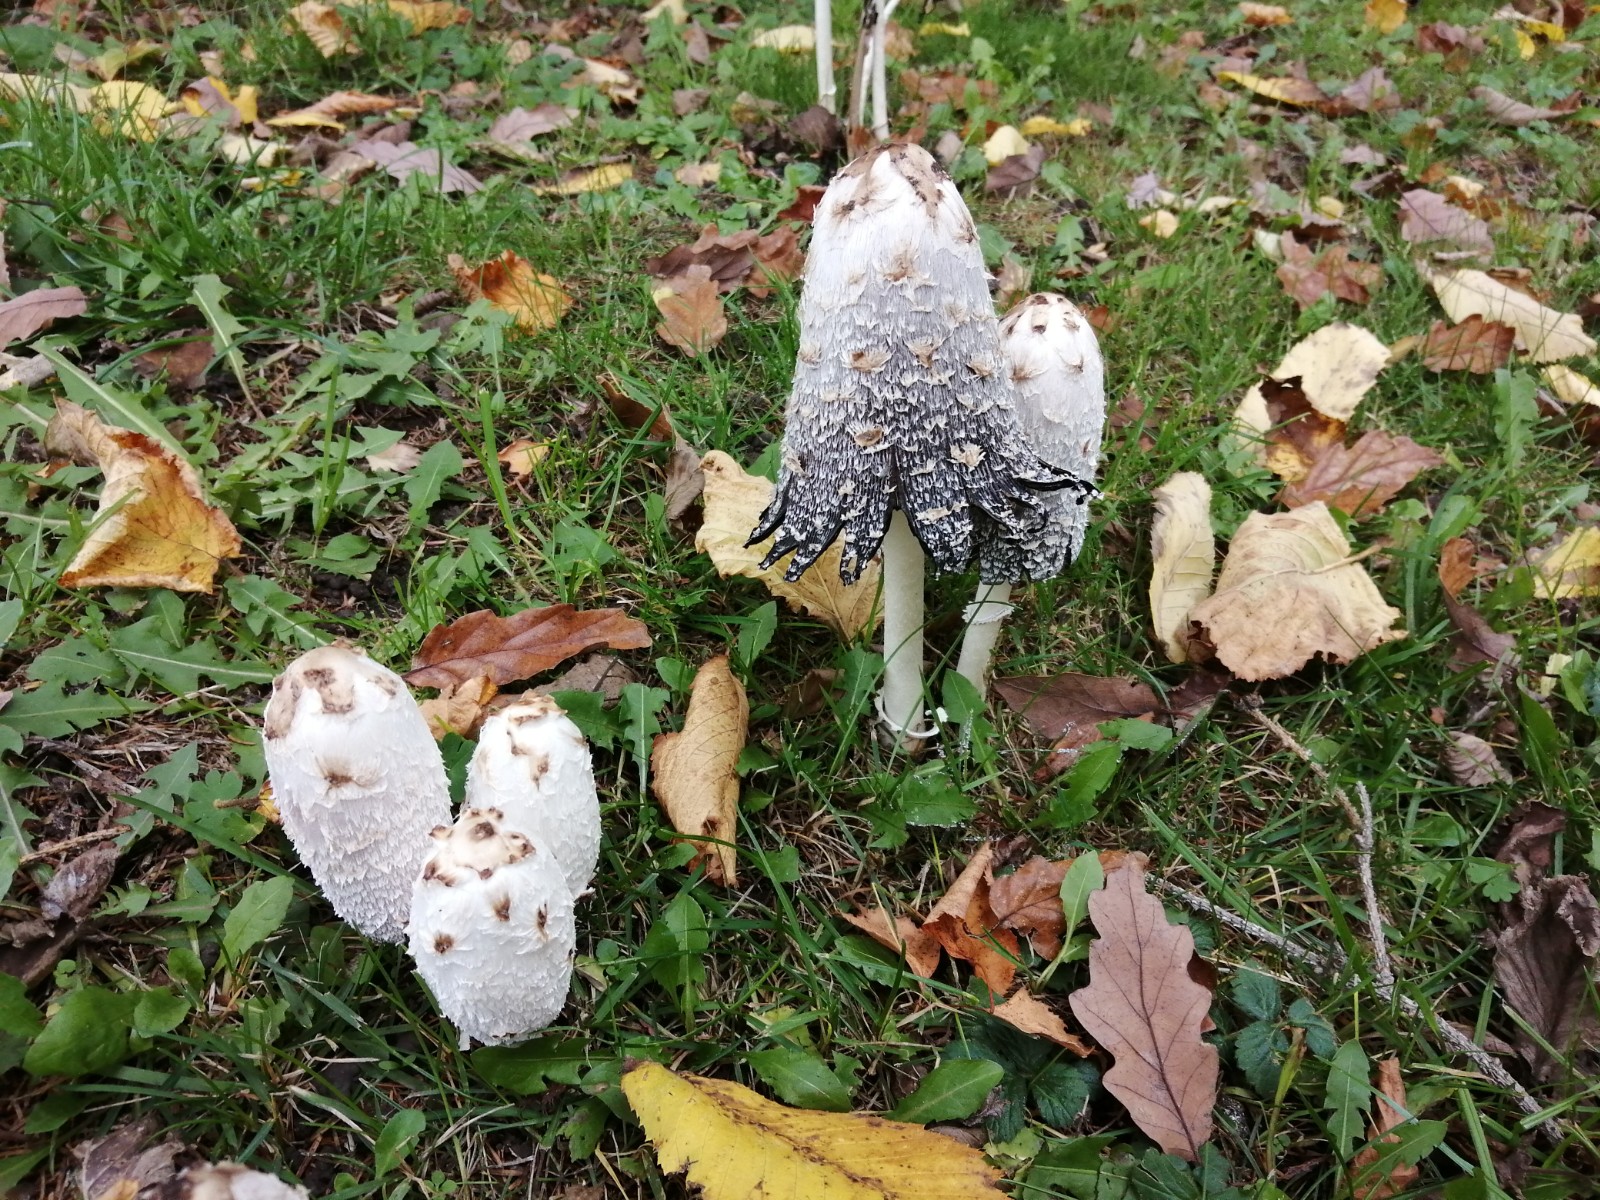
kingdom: Fungi
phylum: Basidiomycota
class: Agaricomycetes
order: Agaricales
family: Agaricaceae
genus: Coprinus
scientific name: Coprinus comatus
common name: stor parykhat
